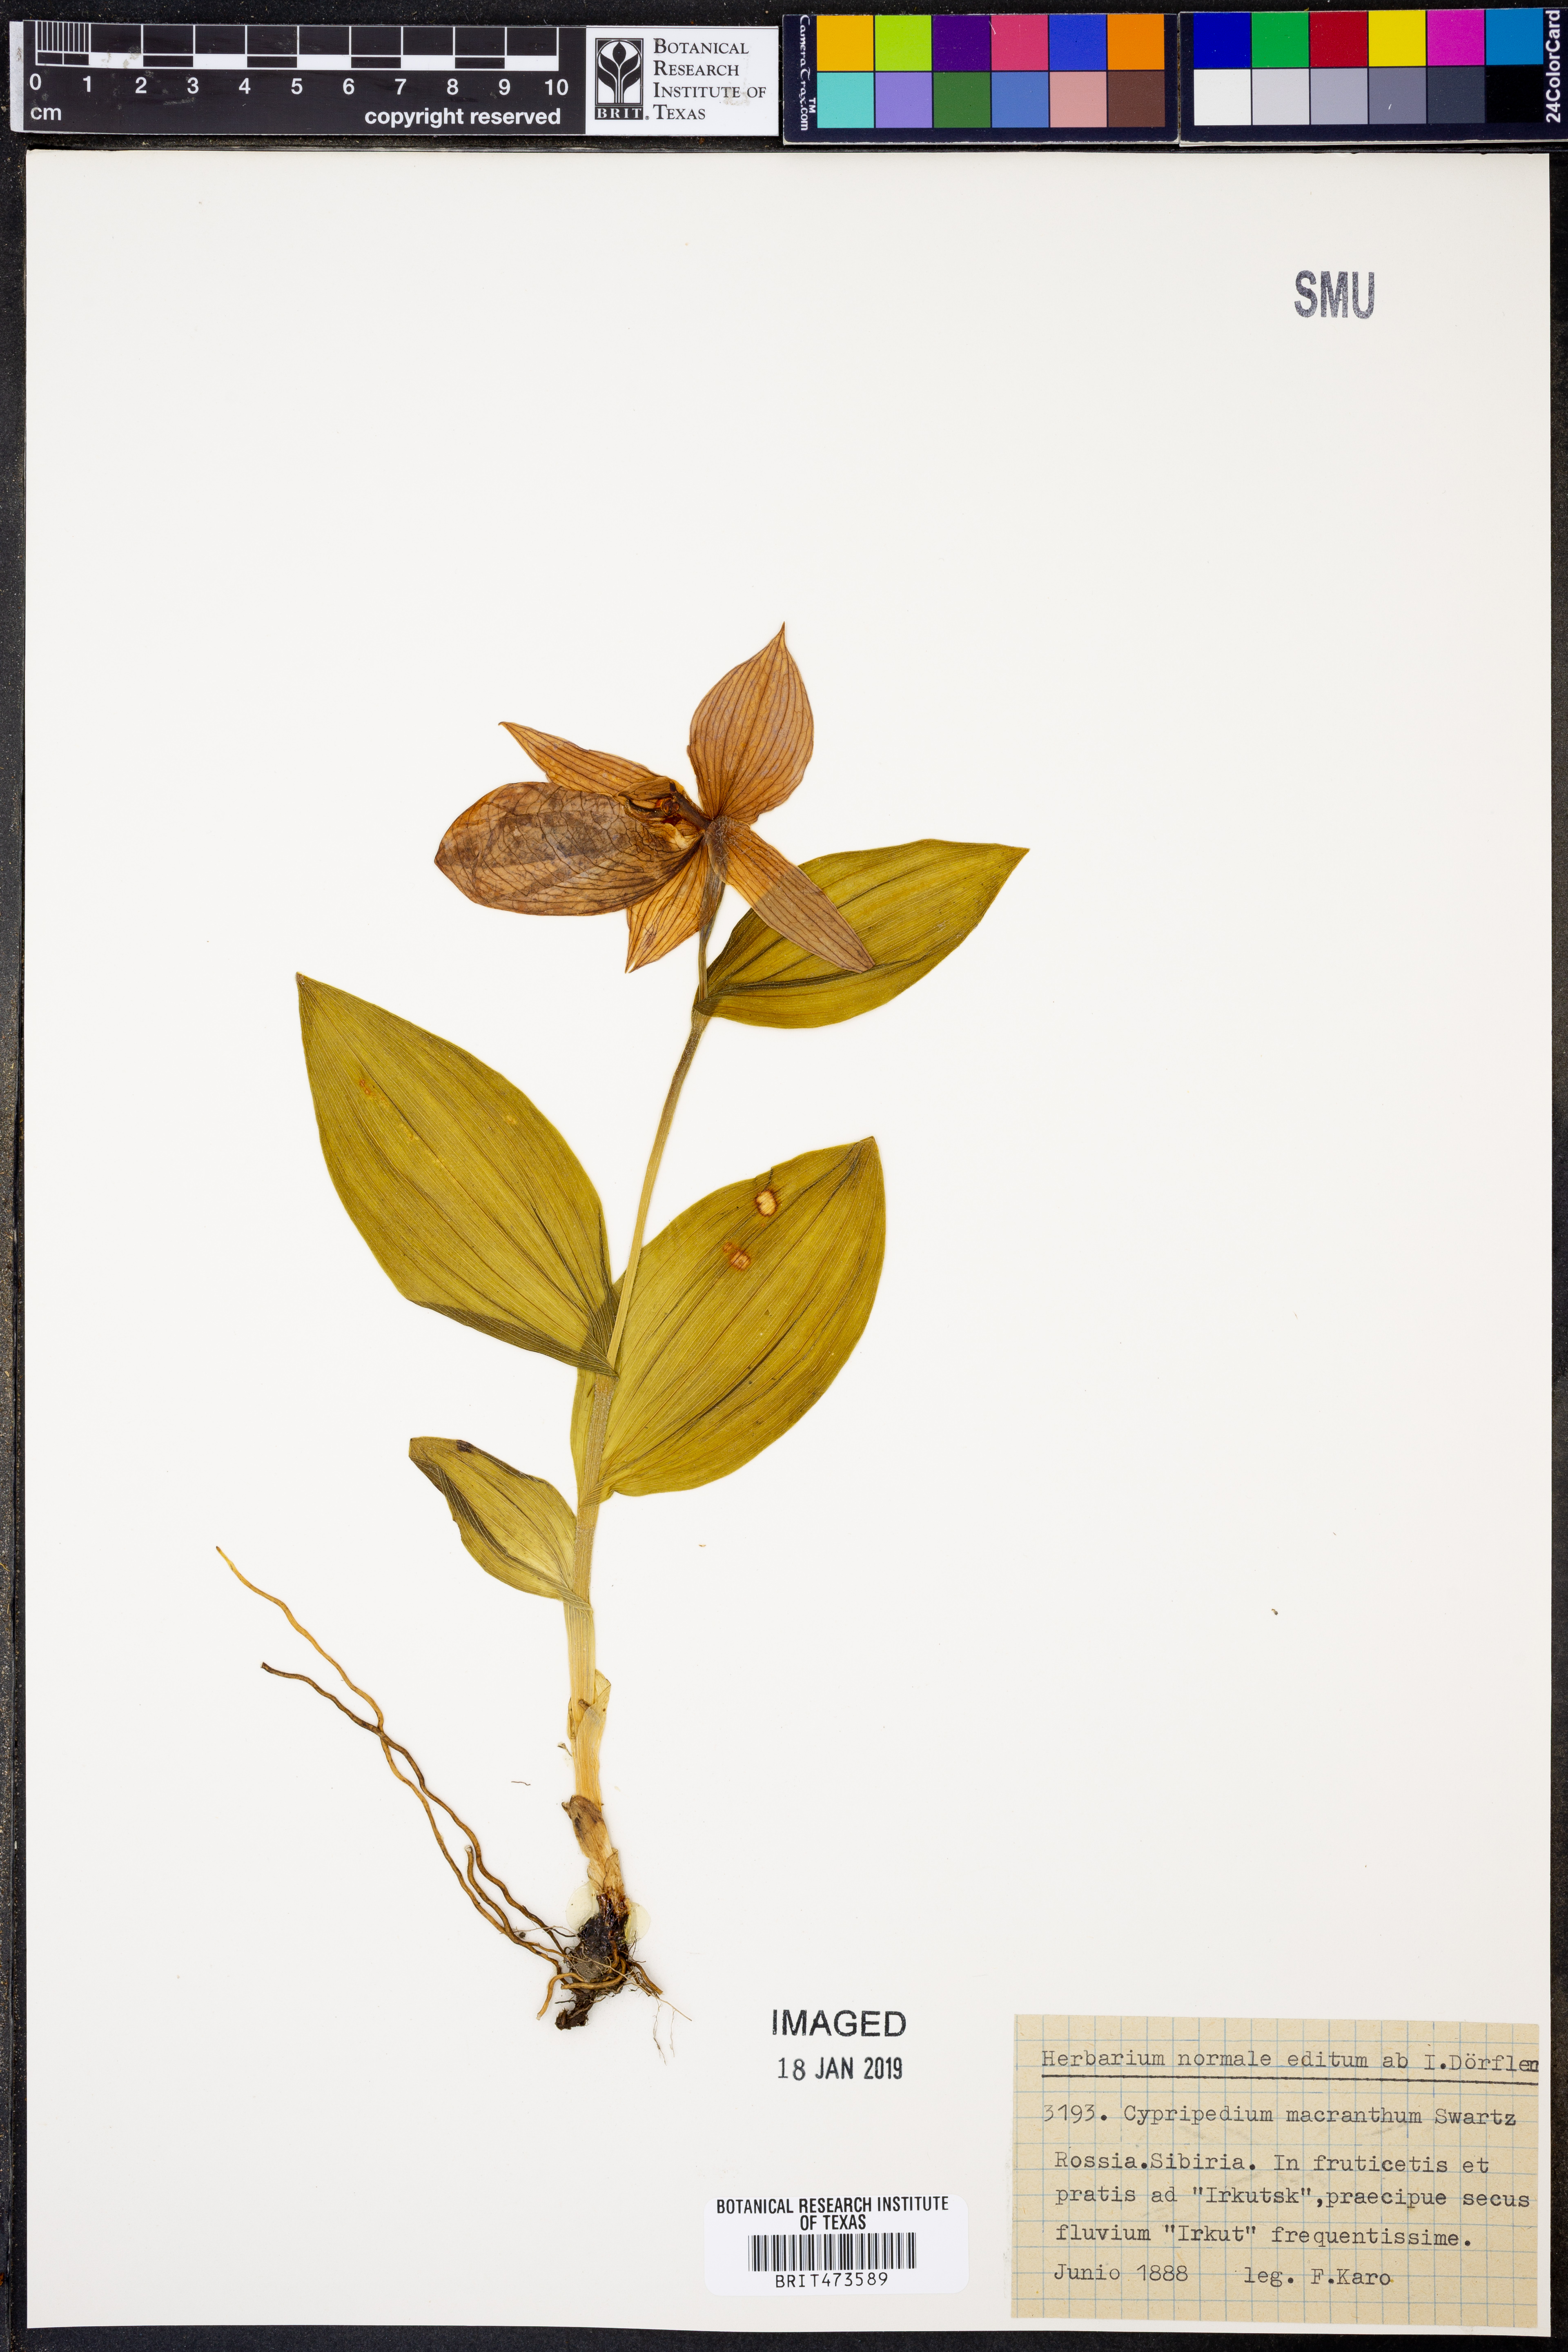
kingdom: Plantae
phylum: Tracheophyta
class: Liliopsida
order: Asparagales
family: Orchidaceae
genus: Cypripedium
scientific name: Cypripedium micranthum
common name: Small flowered cypripedium
